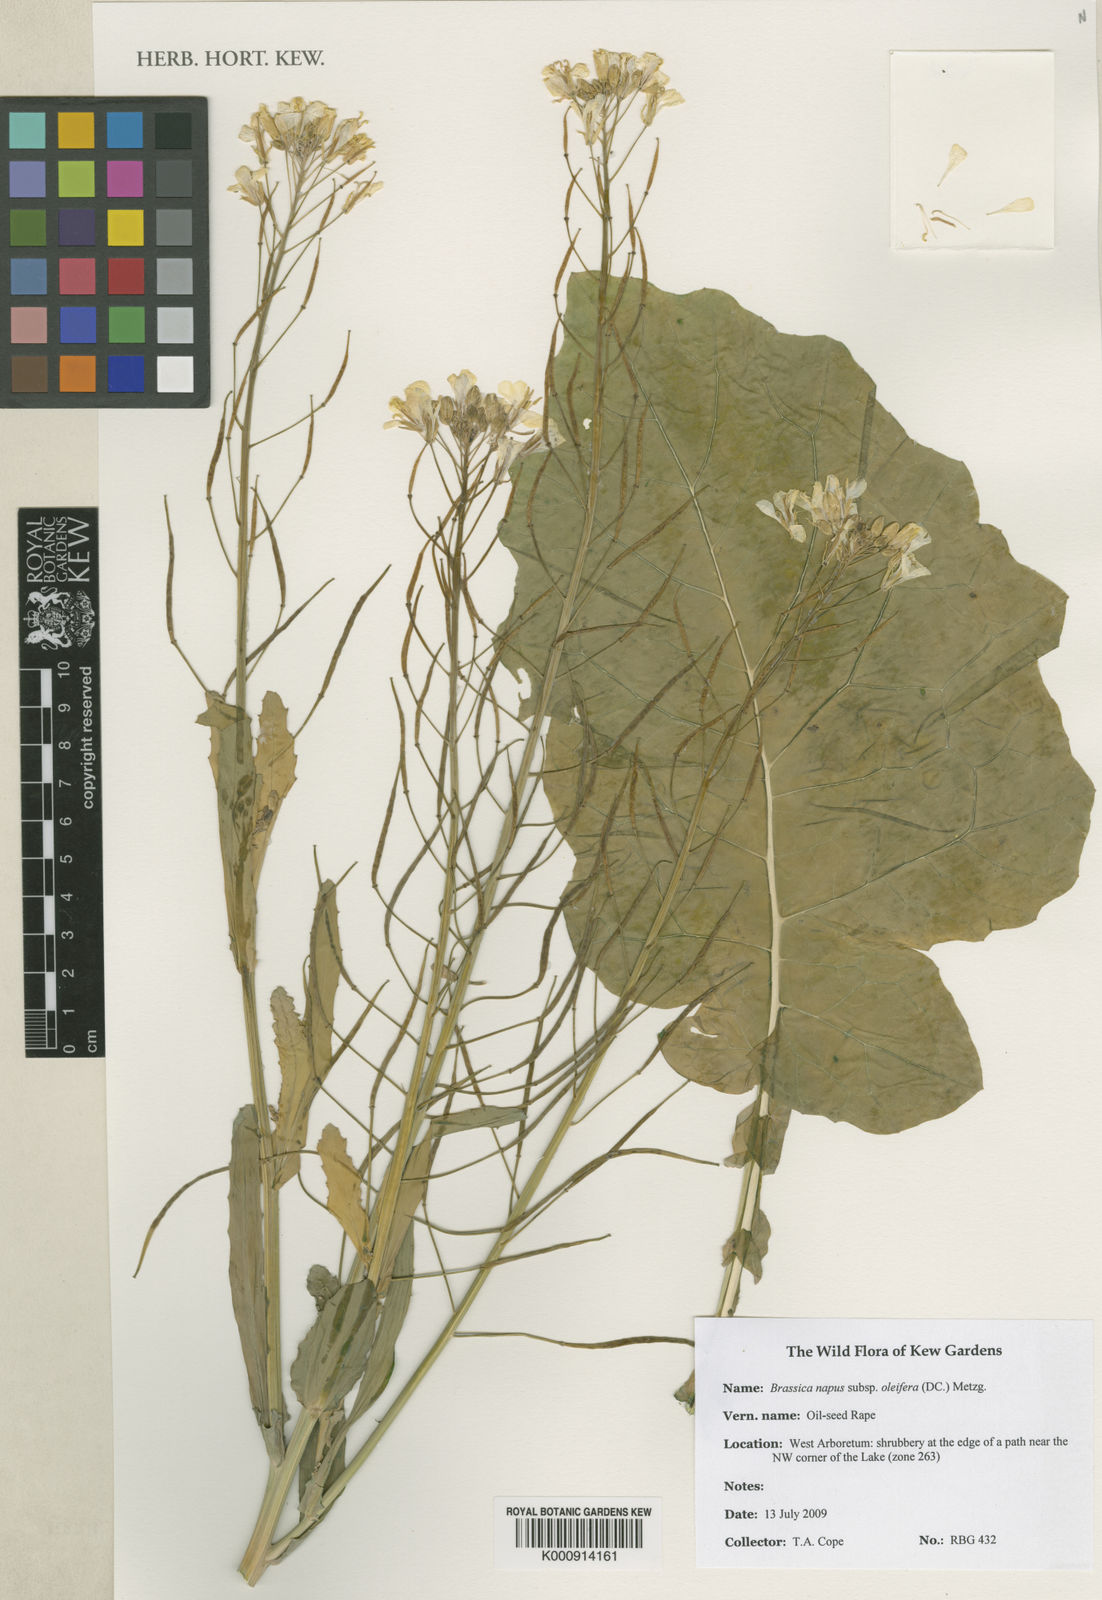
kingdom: Plantae
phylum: Tracheophyta
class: Magnoliopsida
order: Brassicales
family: Brassicaceae
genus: Brassica
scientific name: Brassica napus
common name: Rape
